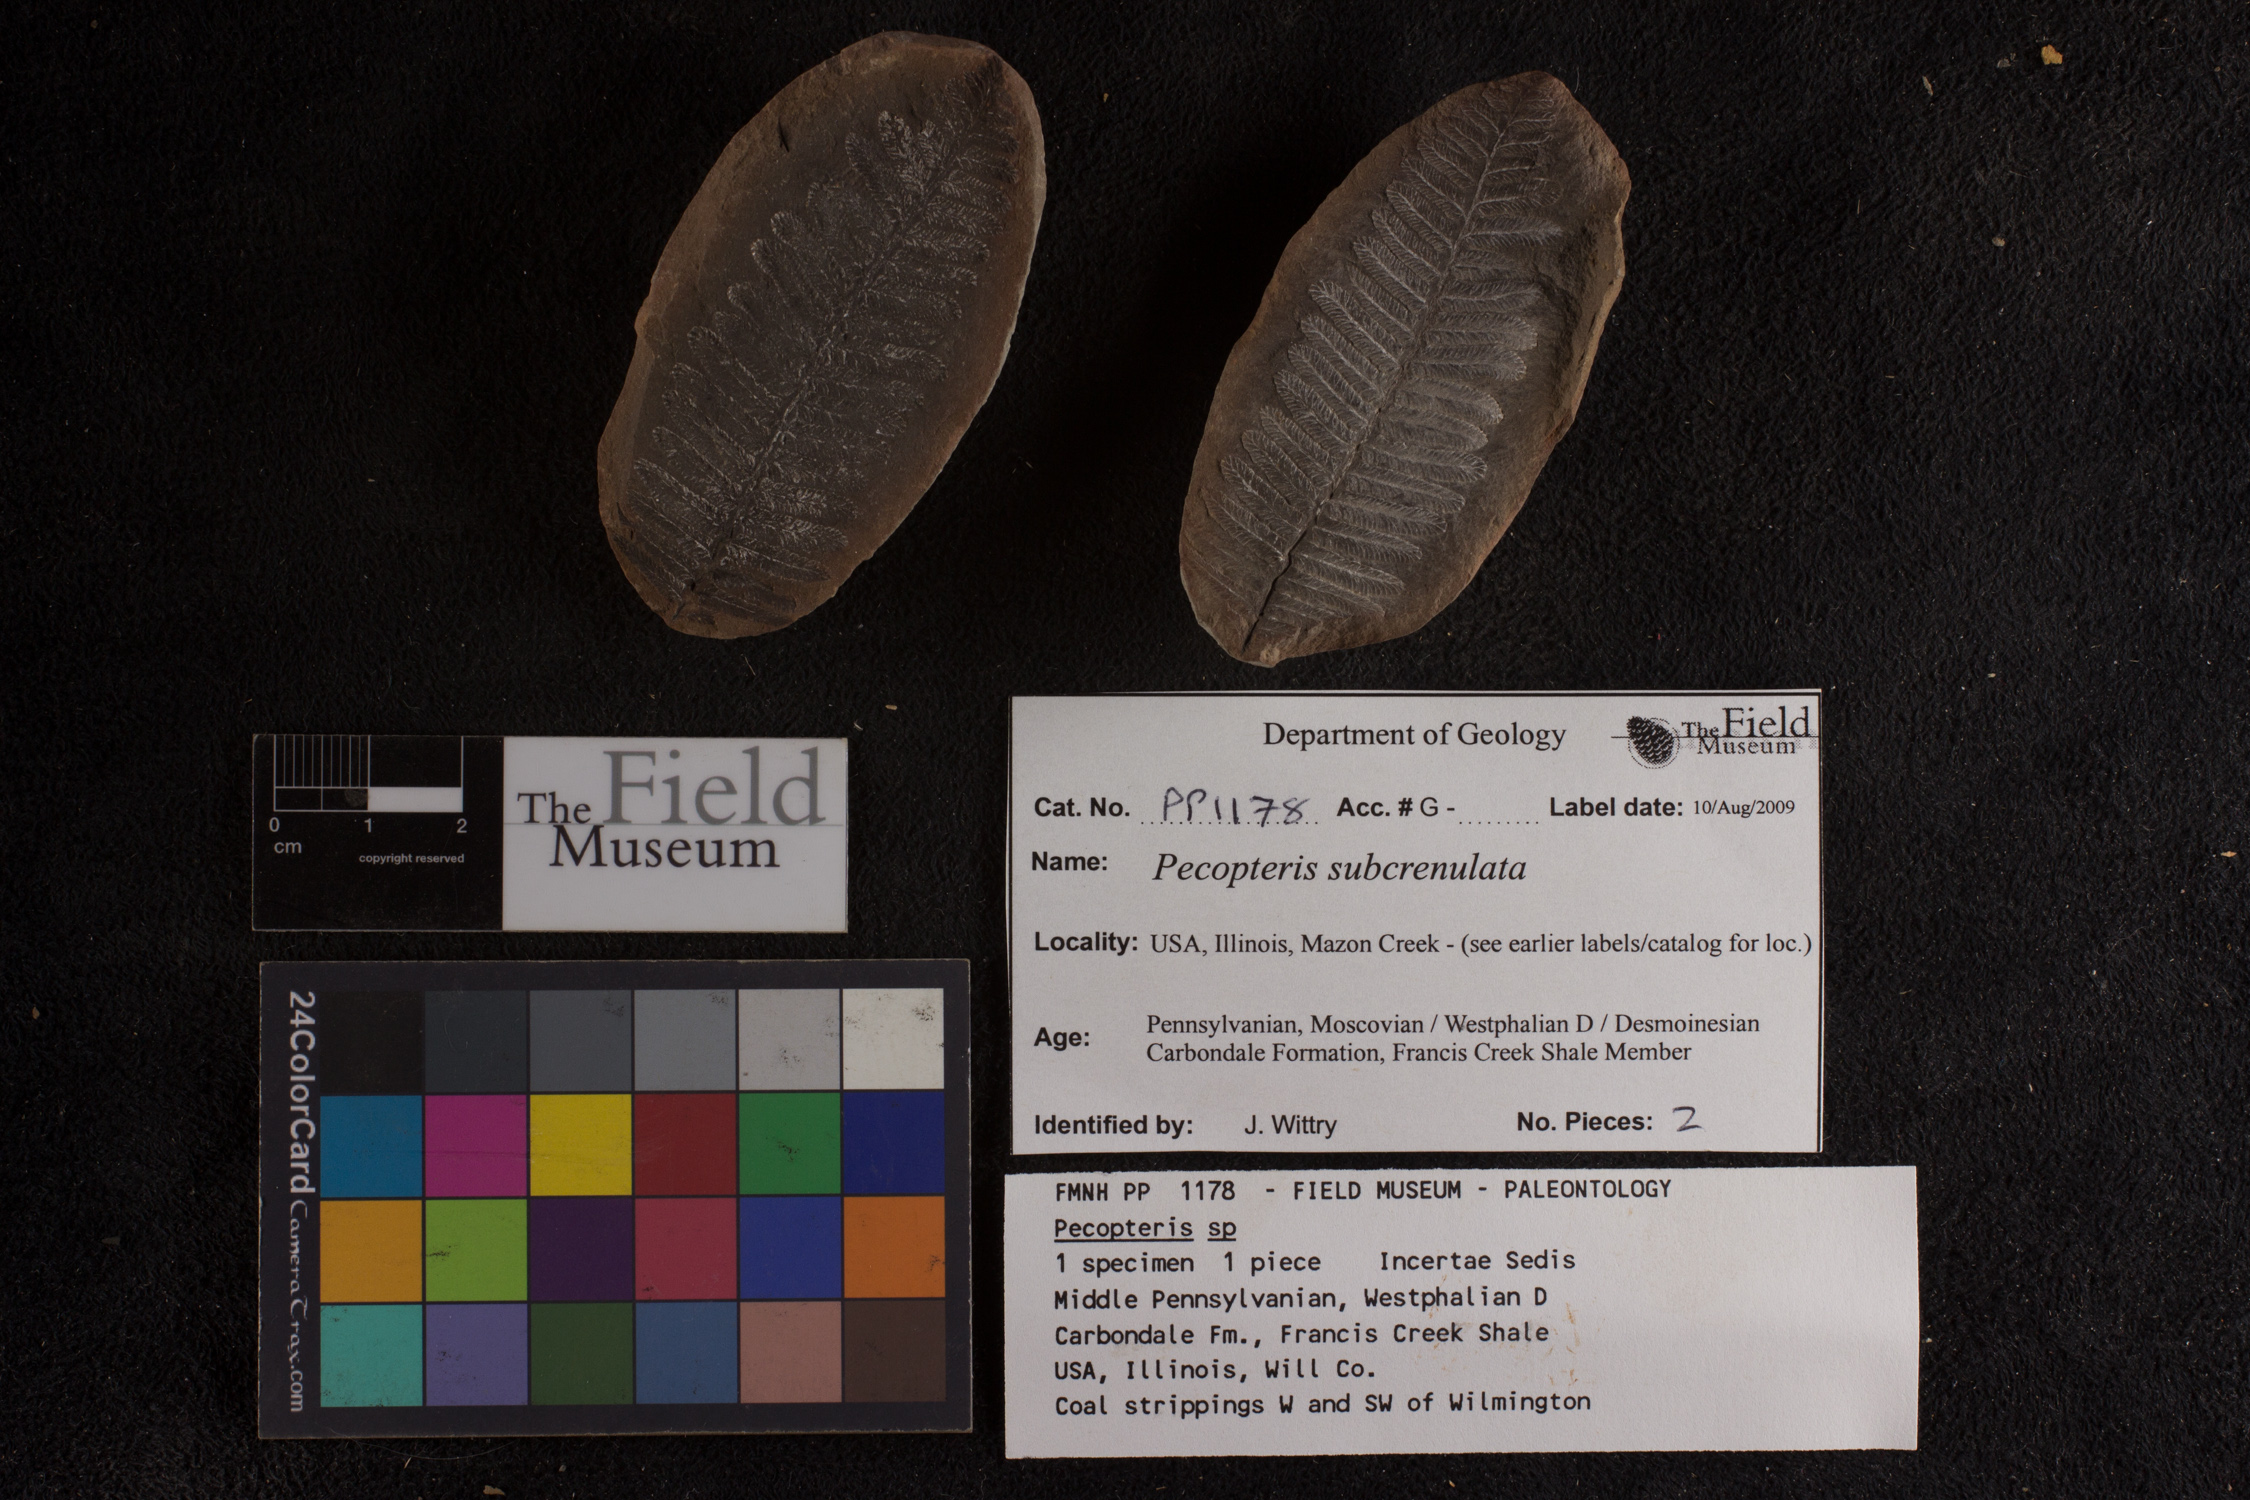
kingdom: Plantae
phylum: Tracheophyta
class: Polypodiopsida
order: Marattiales
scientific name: Marattiales
